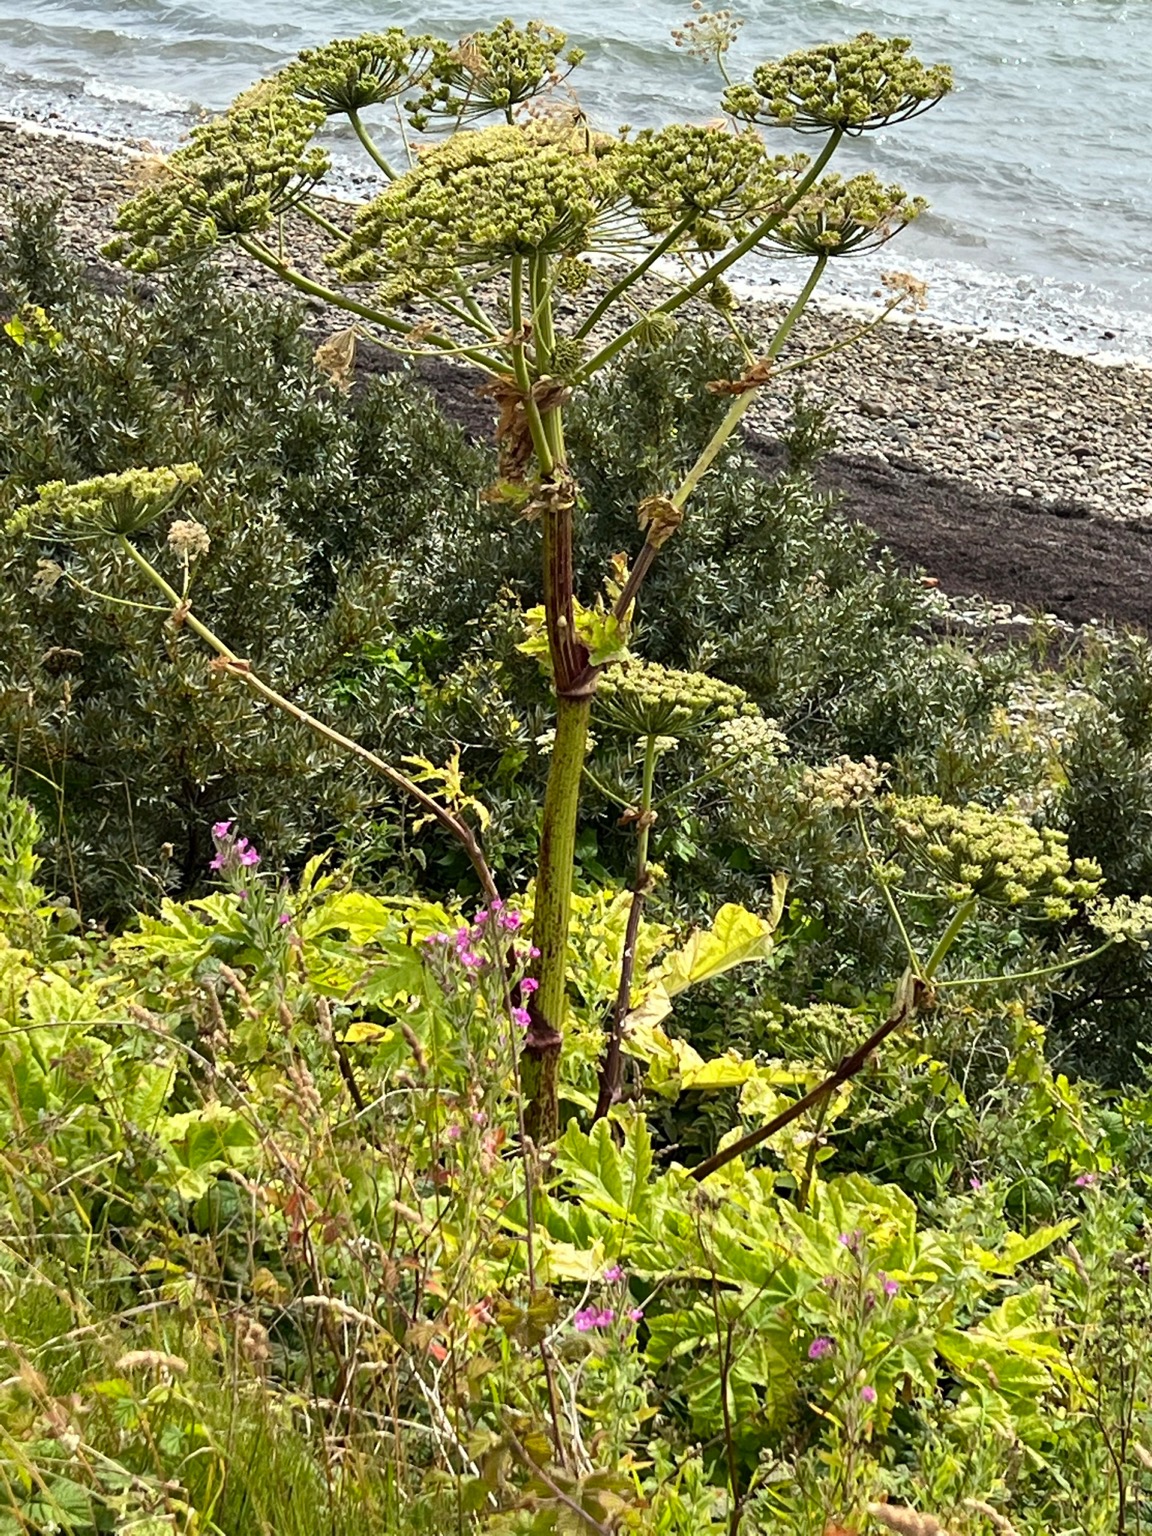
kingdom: Plantae
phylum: Tracheophyta
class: Magnoliopsida
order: Apiales
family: Apiaceae
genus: Heracleum
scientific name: Heracleum mantegazzianum
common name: Kæmpe-bjørneklo
